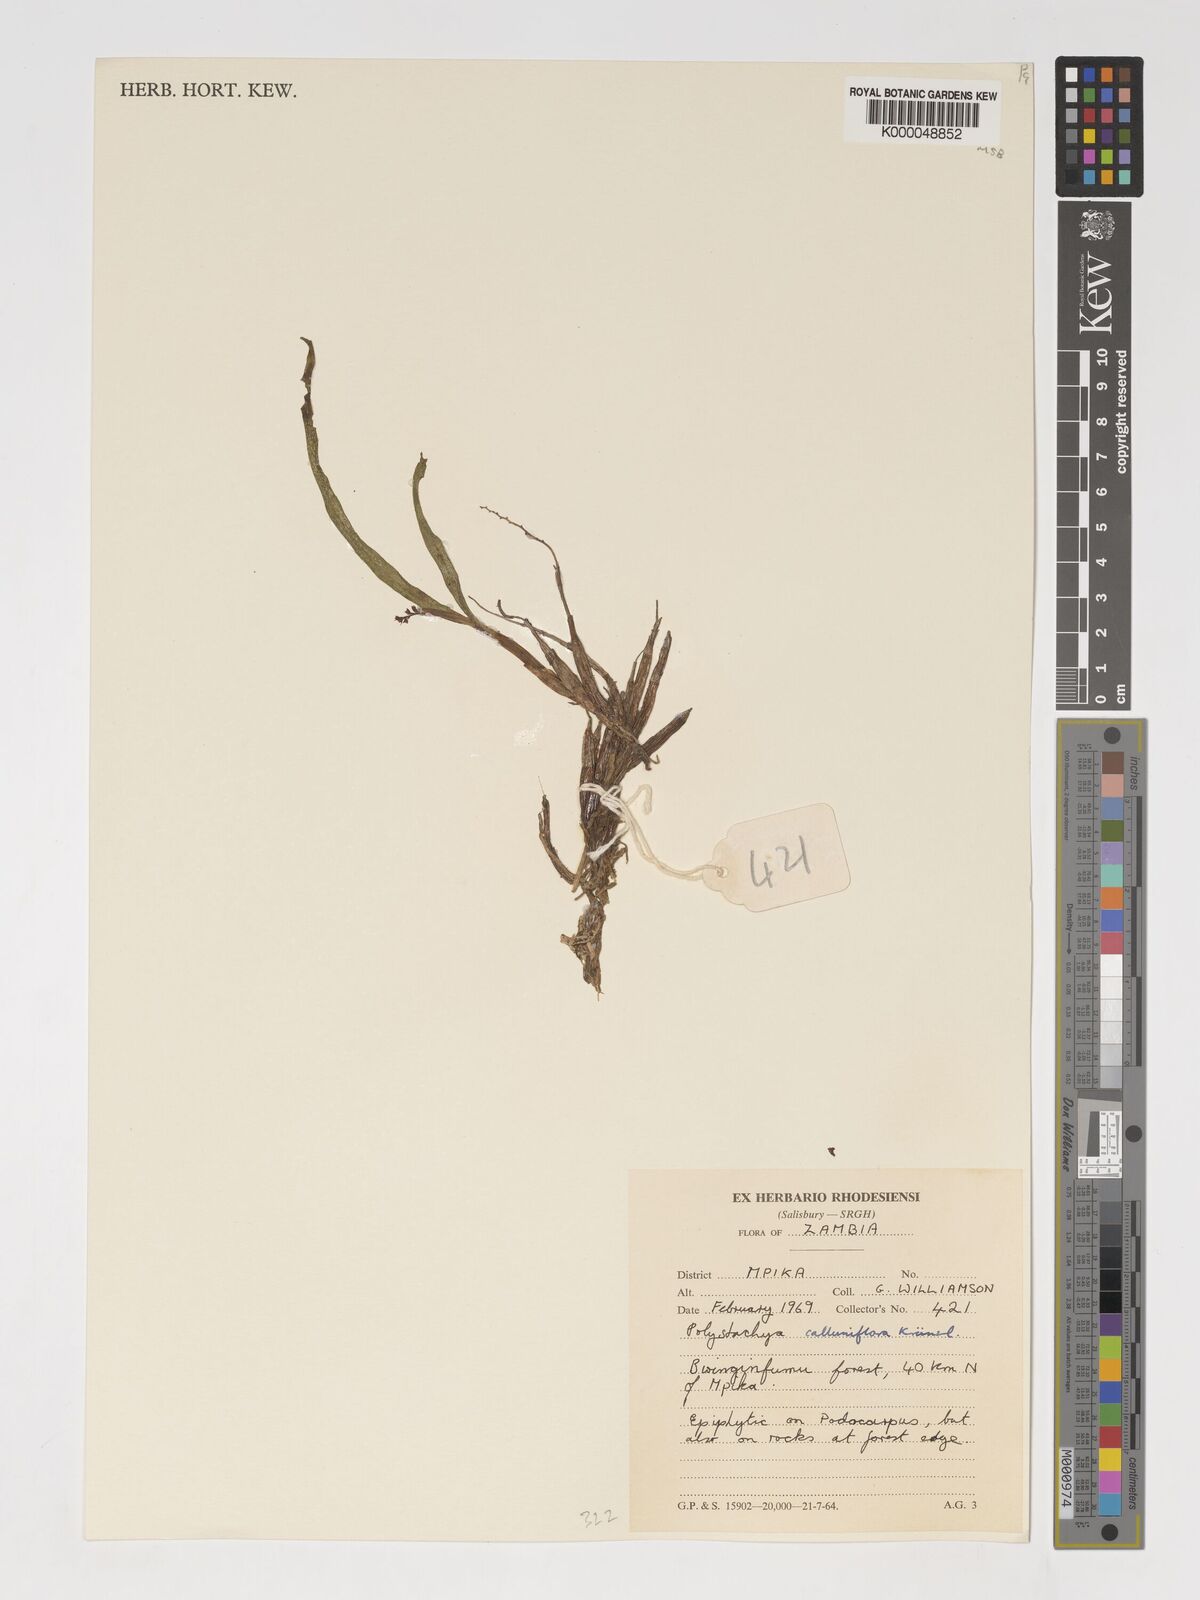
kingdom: Plantae
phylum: Tracheophyta
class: Liliopsida
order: Asparagales
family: Orchidaceae
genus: Polystachya
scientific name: Polystachya hologlossa
